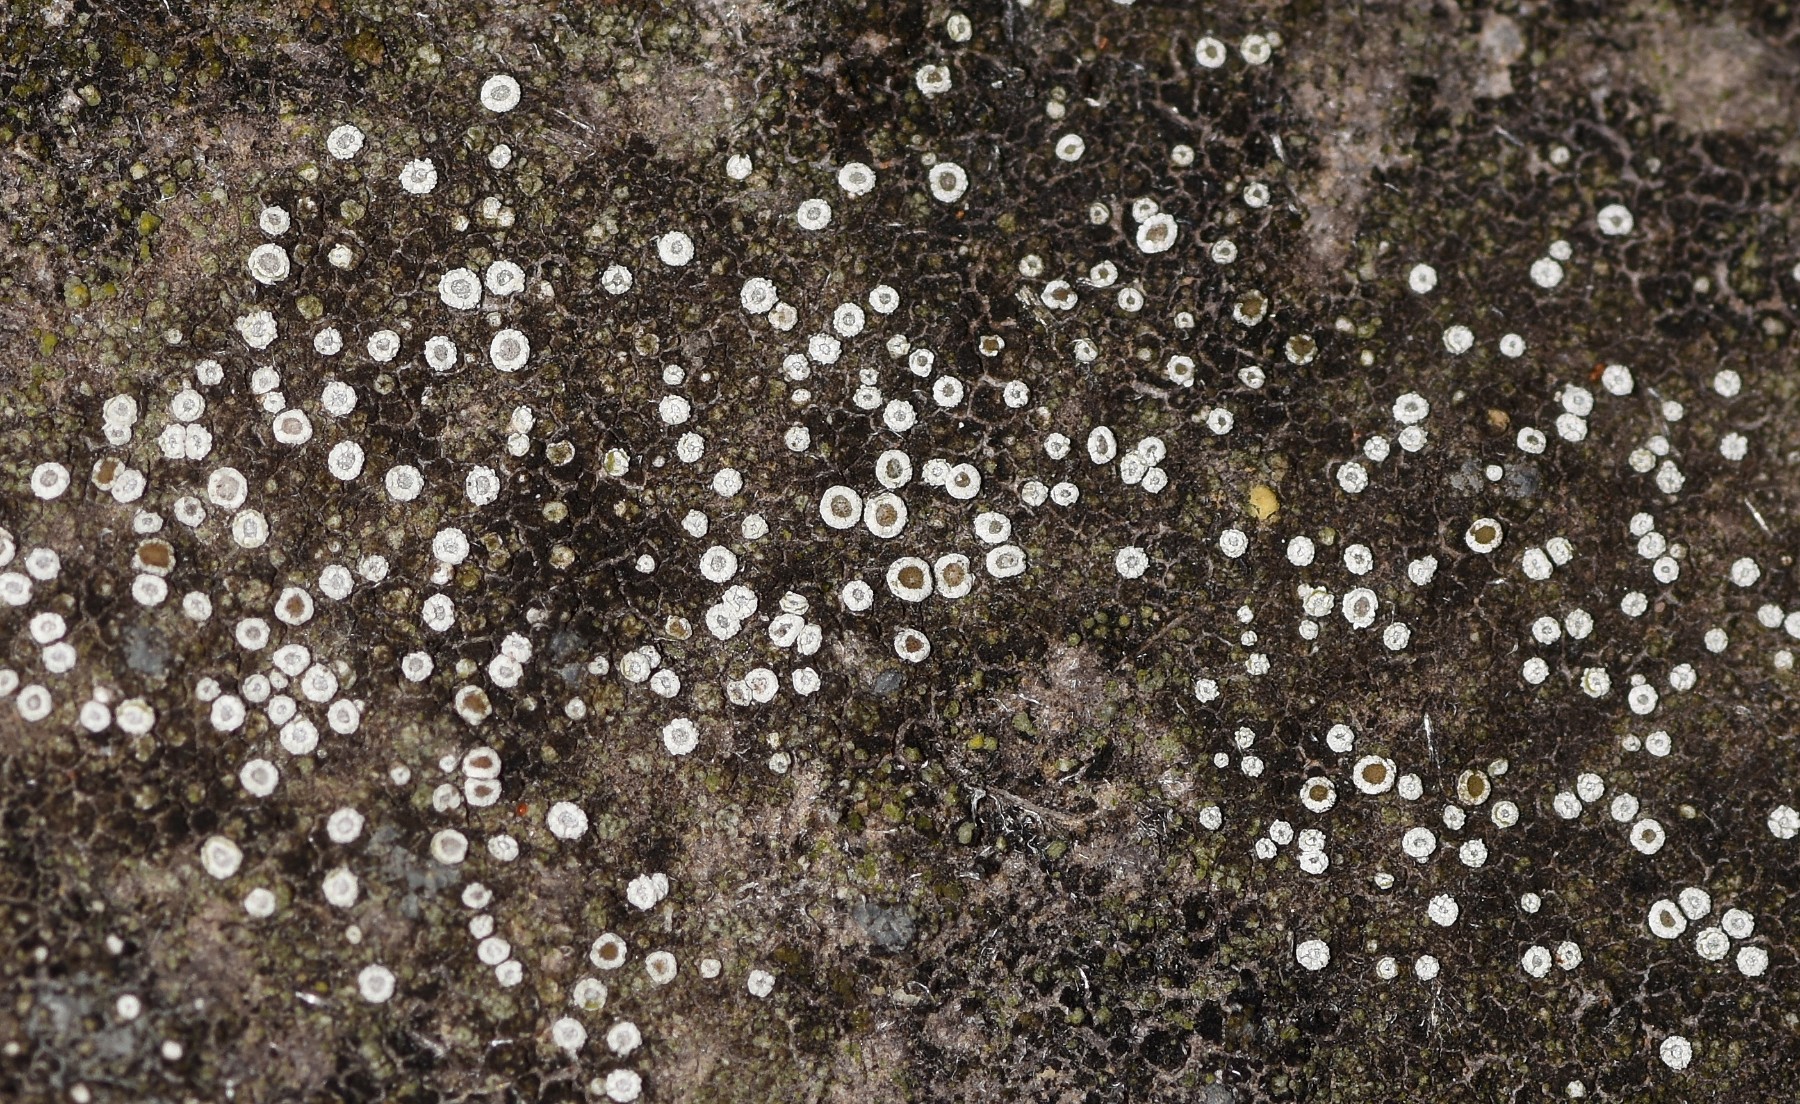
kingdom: Fungi
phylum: Ascomycota
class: Lecanoromycetes
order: Lecanorales
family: Lecanoraceae
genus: Polyozosia
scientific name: Polyozosia dispersa
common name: spredt kantskivelav
